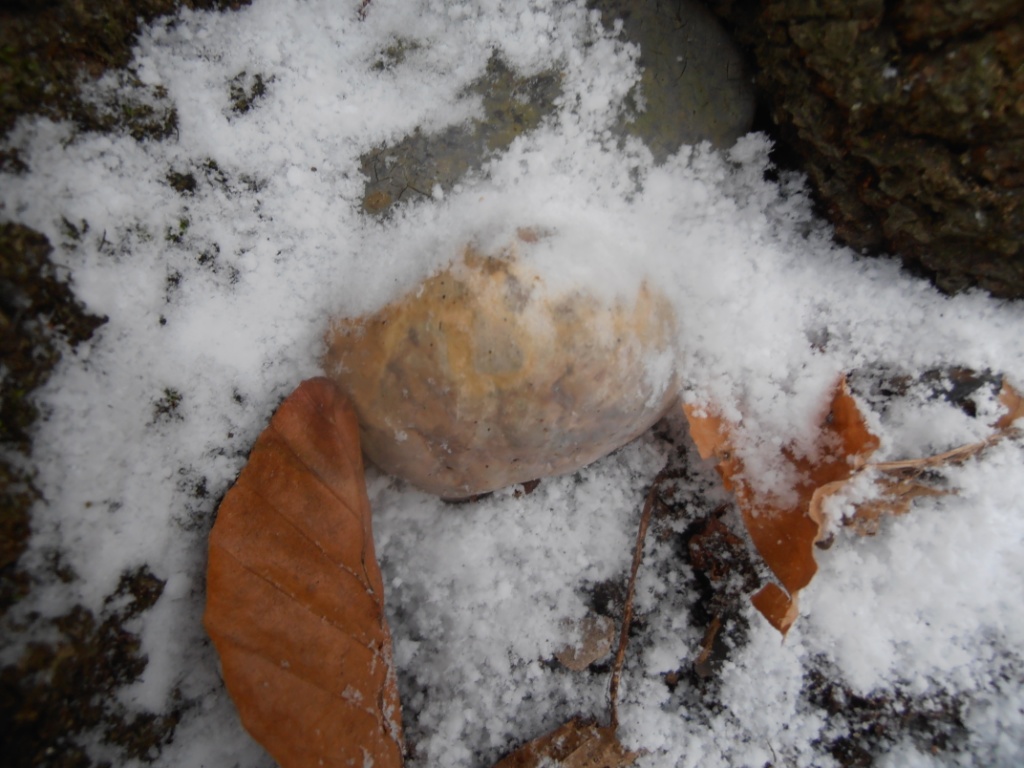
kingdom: Fungi
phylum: Basidiomycota
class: Agaricomycetes
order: Polyporales
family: Polyporaceae
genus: Ganoderma
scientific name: Ganoderma pfeifferi
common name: kobberrød lakporesvamp
